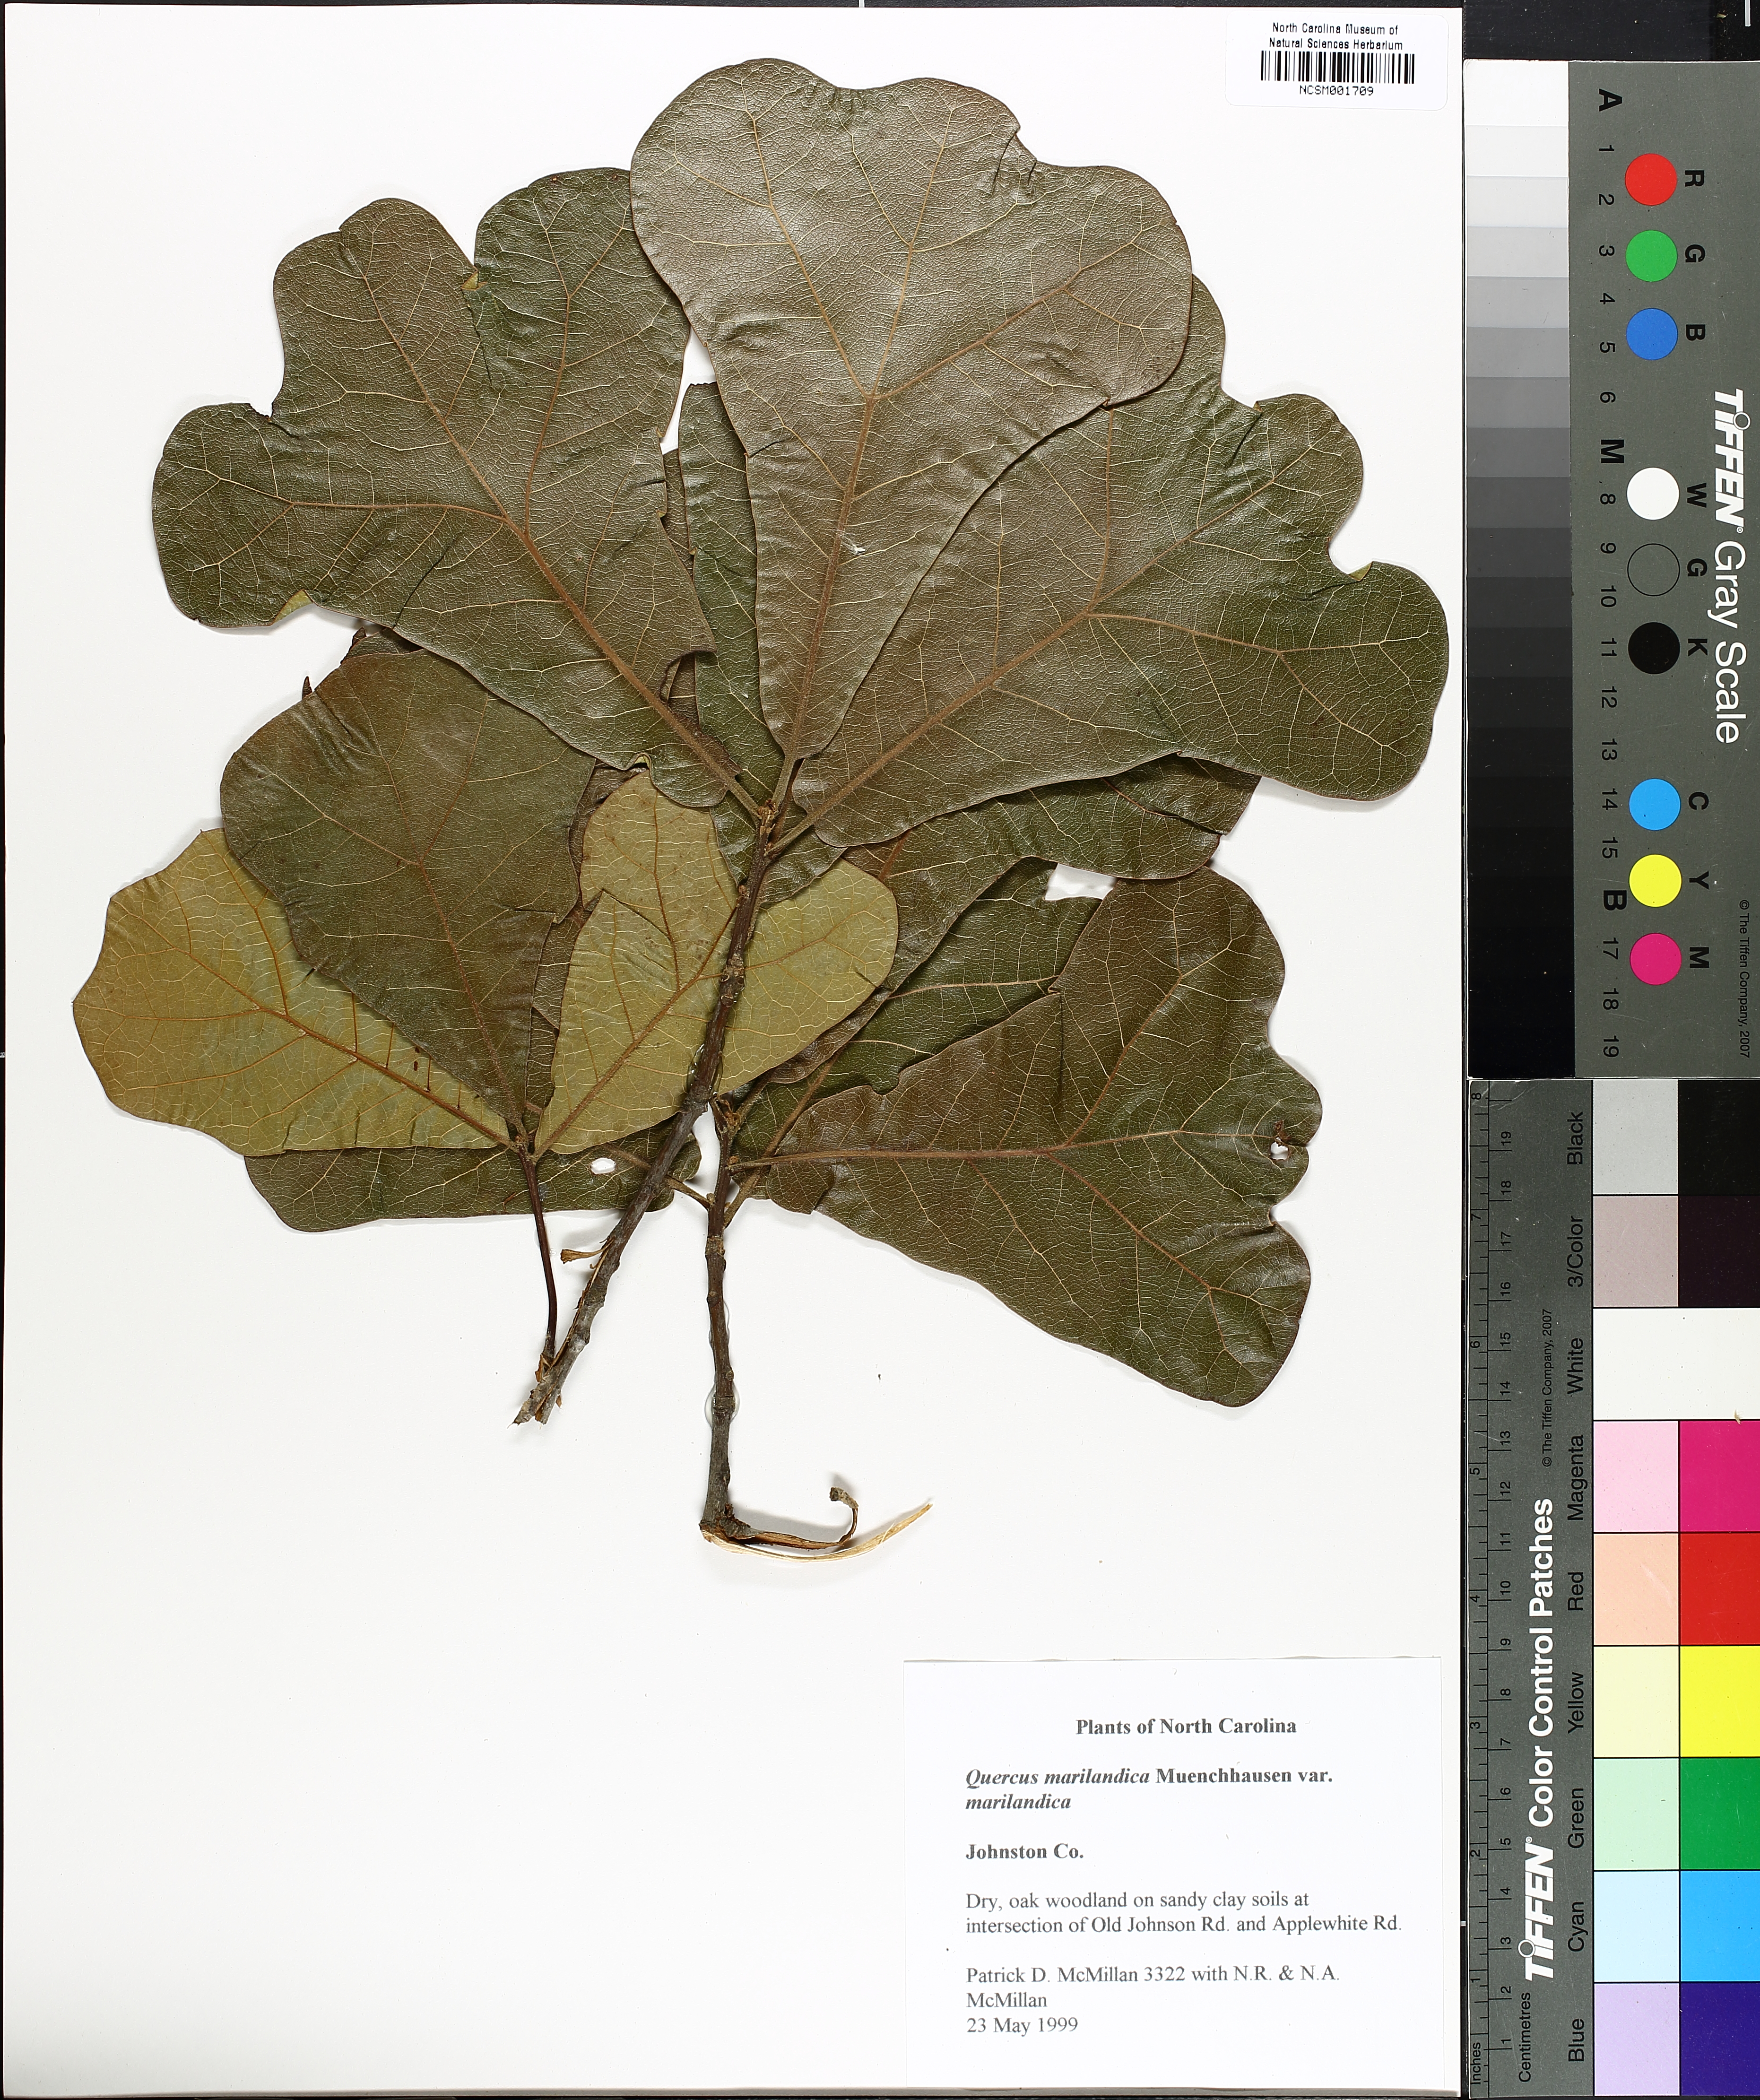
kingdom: Plantae
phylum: Tracheophyta
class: Magnoliopsida
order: Fagales
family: Fagaceae
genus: Quercus
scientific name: Quercus marilandica
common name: Blackjack oak
